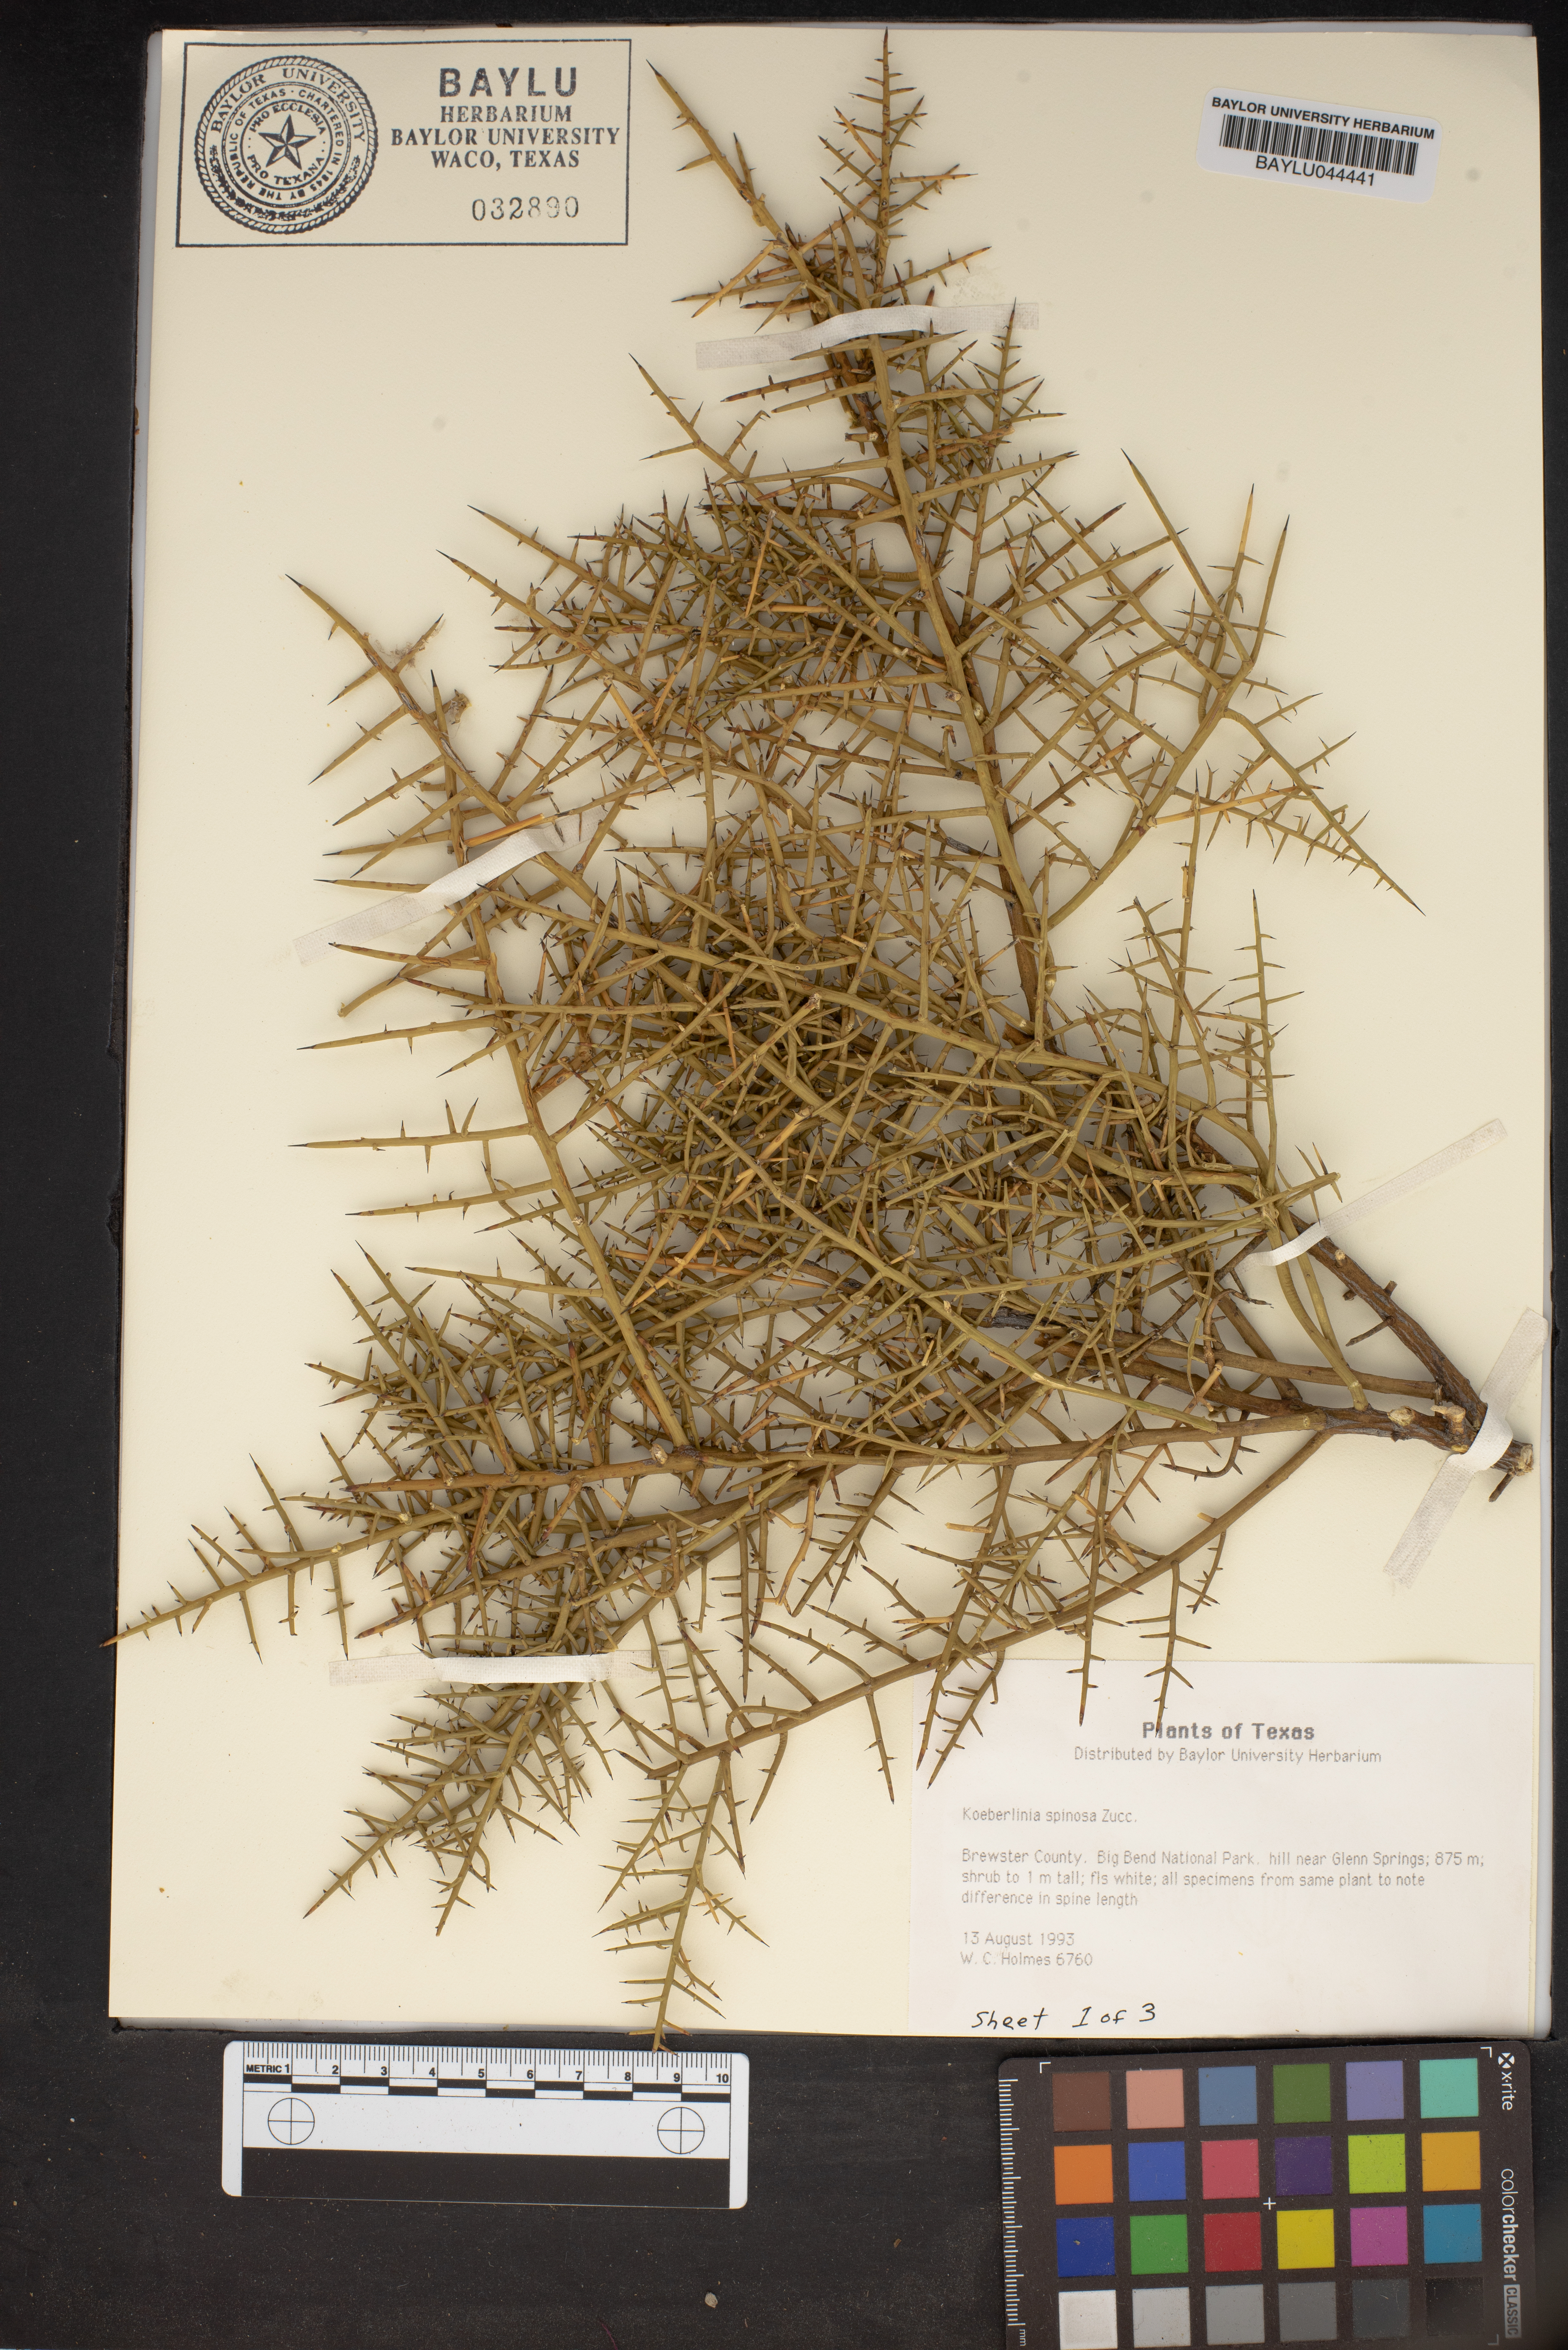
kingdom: Plantae
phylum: Tracheophyta
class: Magnoliopsida
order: Brassicales
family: Koeberliniaceae
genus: Koeberlinia
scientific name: Koeberlinia spinosa
